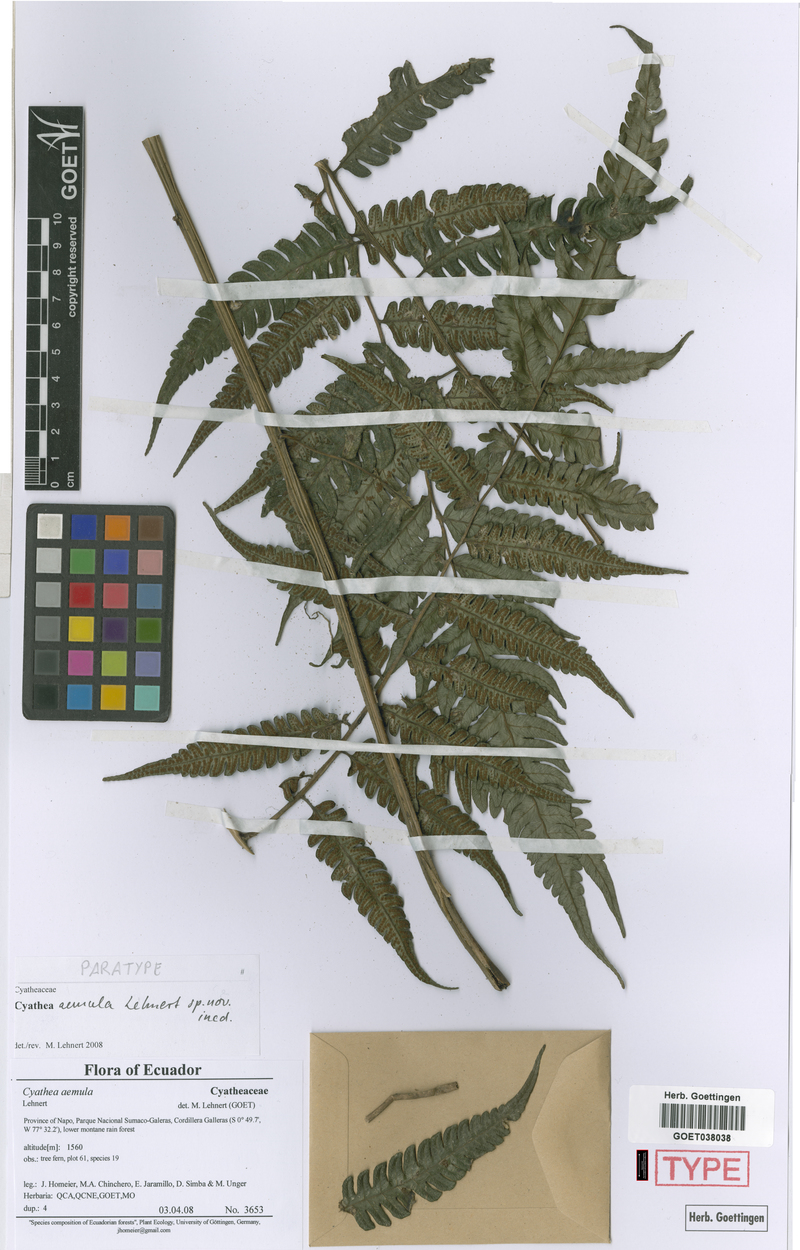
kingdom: Plantae
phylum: Tracheophyta
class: Polypodiopsida
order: Cyatheales
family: Cyatheaceae
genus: Cyathea
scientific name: Cyathea aemula
